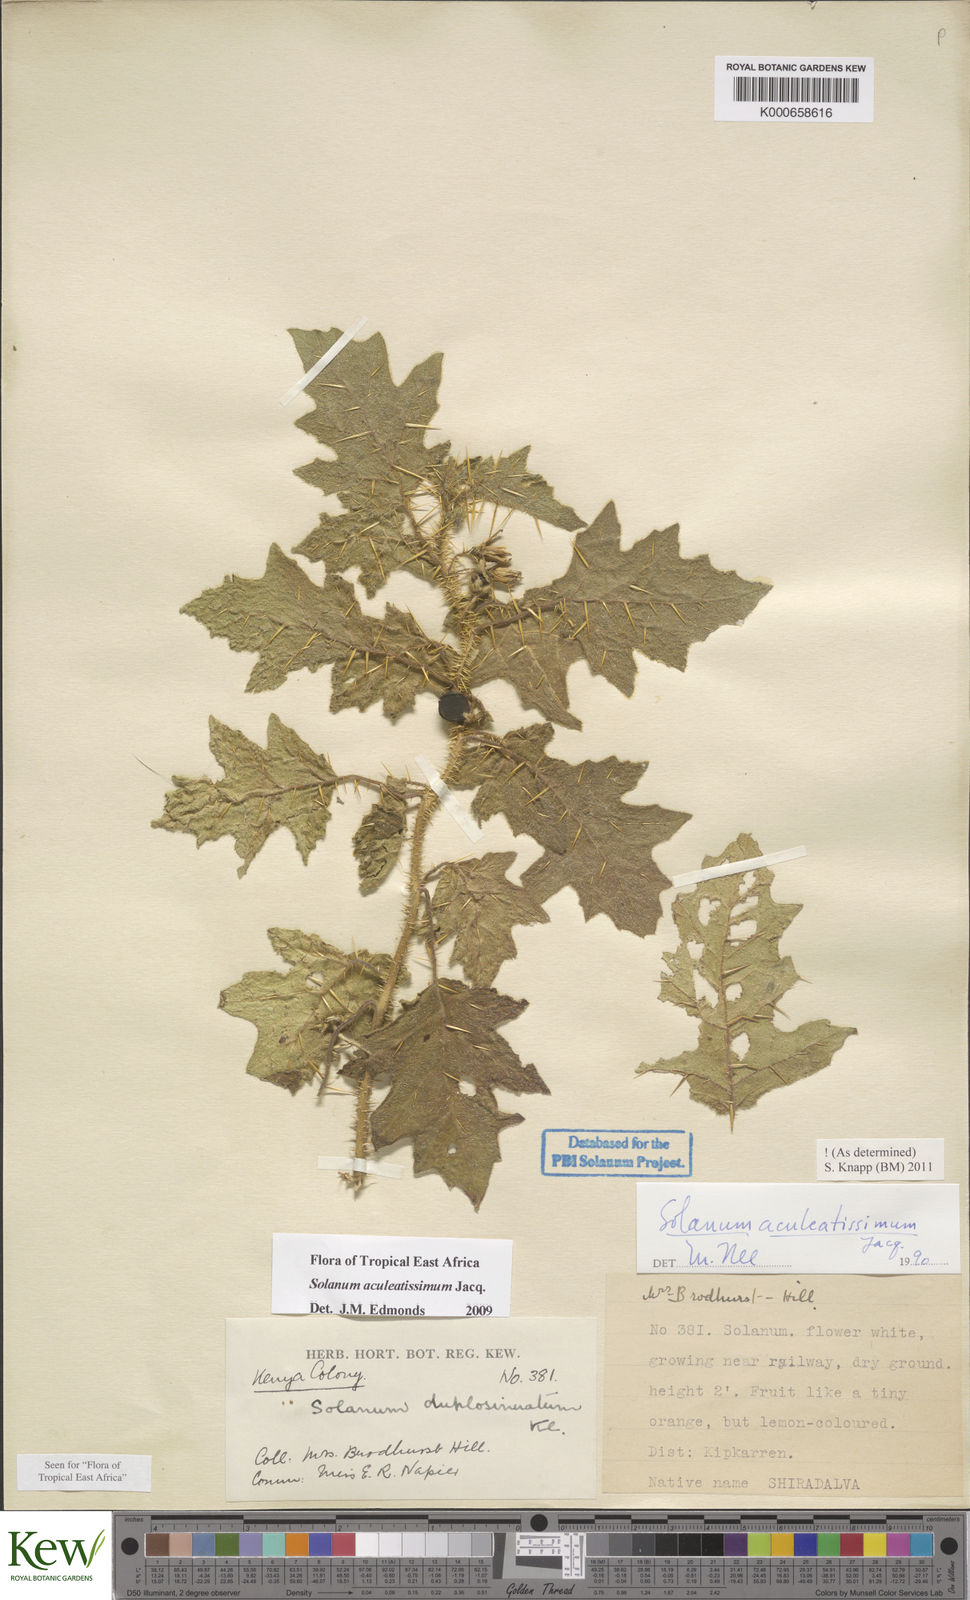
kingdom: Plantae
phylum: Tracheophyta
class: Magnoliopsida
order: Solanales
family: Solanaceae
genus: Solanum
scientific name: Solanum aculeatissimum
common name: Dutch eggplant
